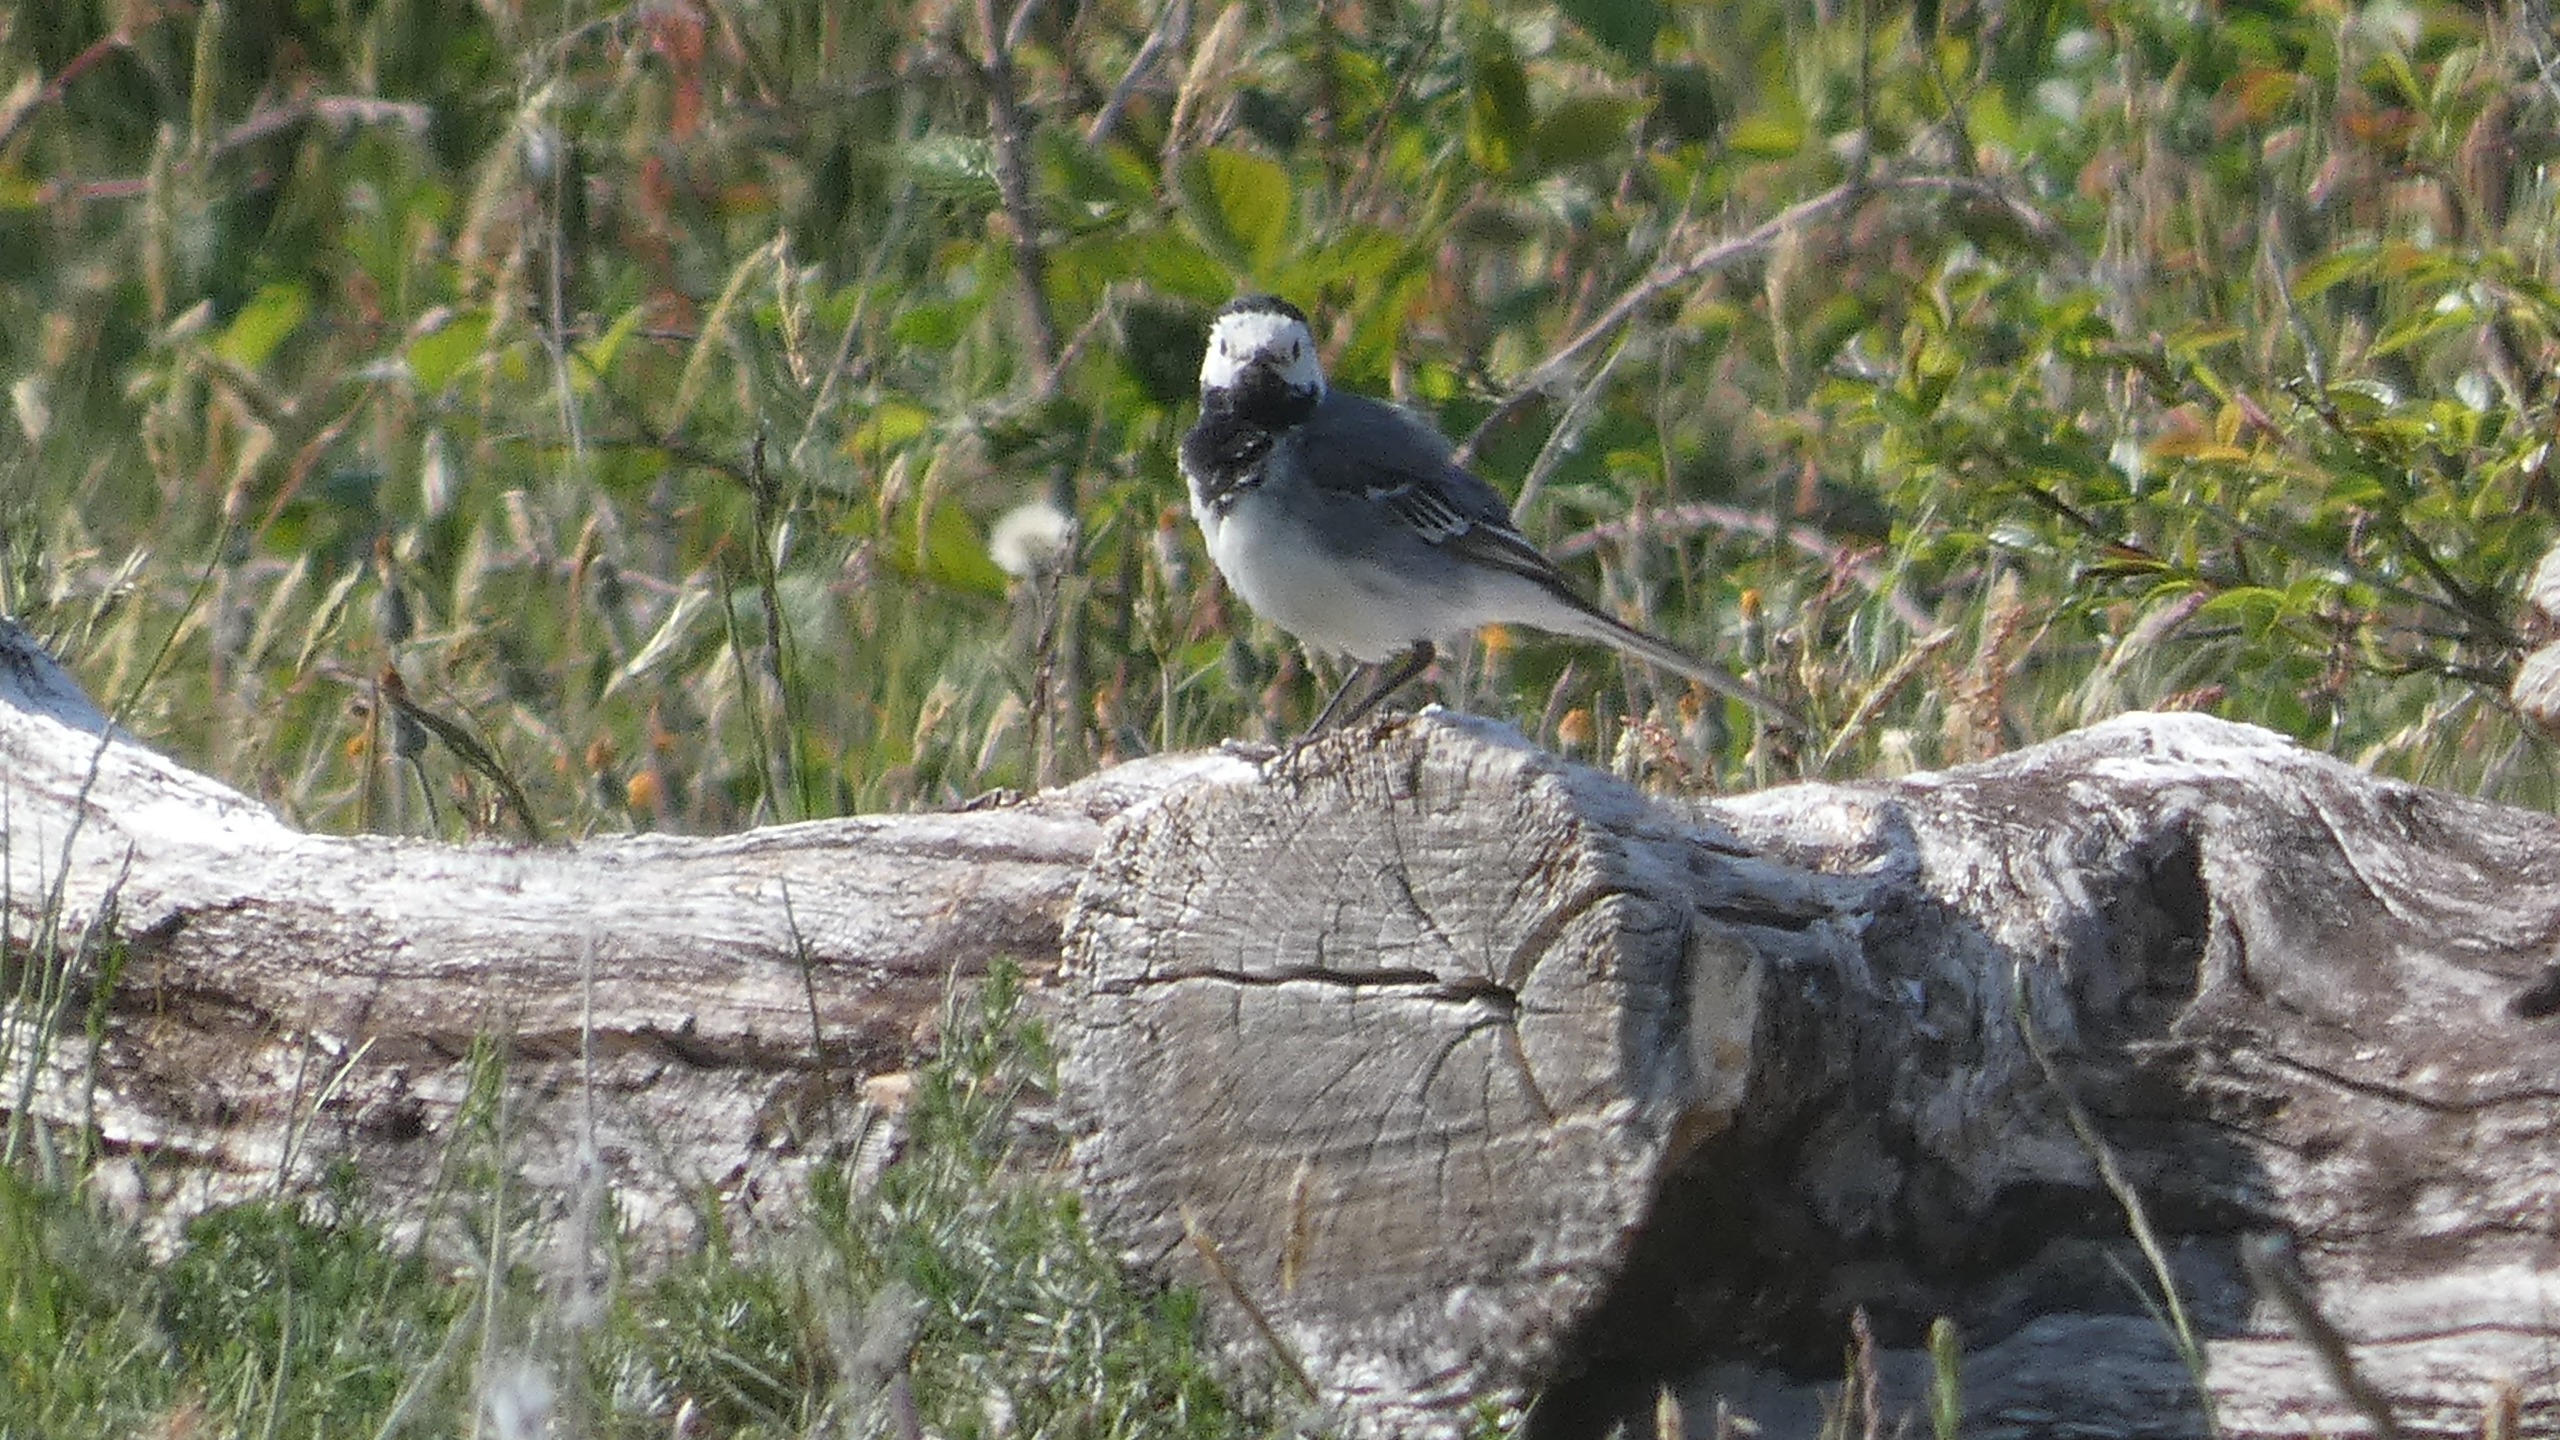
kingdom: Animalia
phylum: Chordata
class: Aves
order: Passeriformes
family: Motacillidae
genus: Motacilla
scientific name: Motacilla alba
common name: Hvid vipstjert
